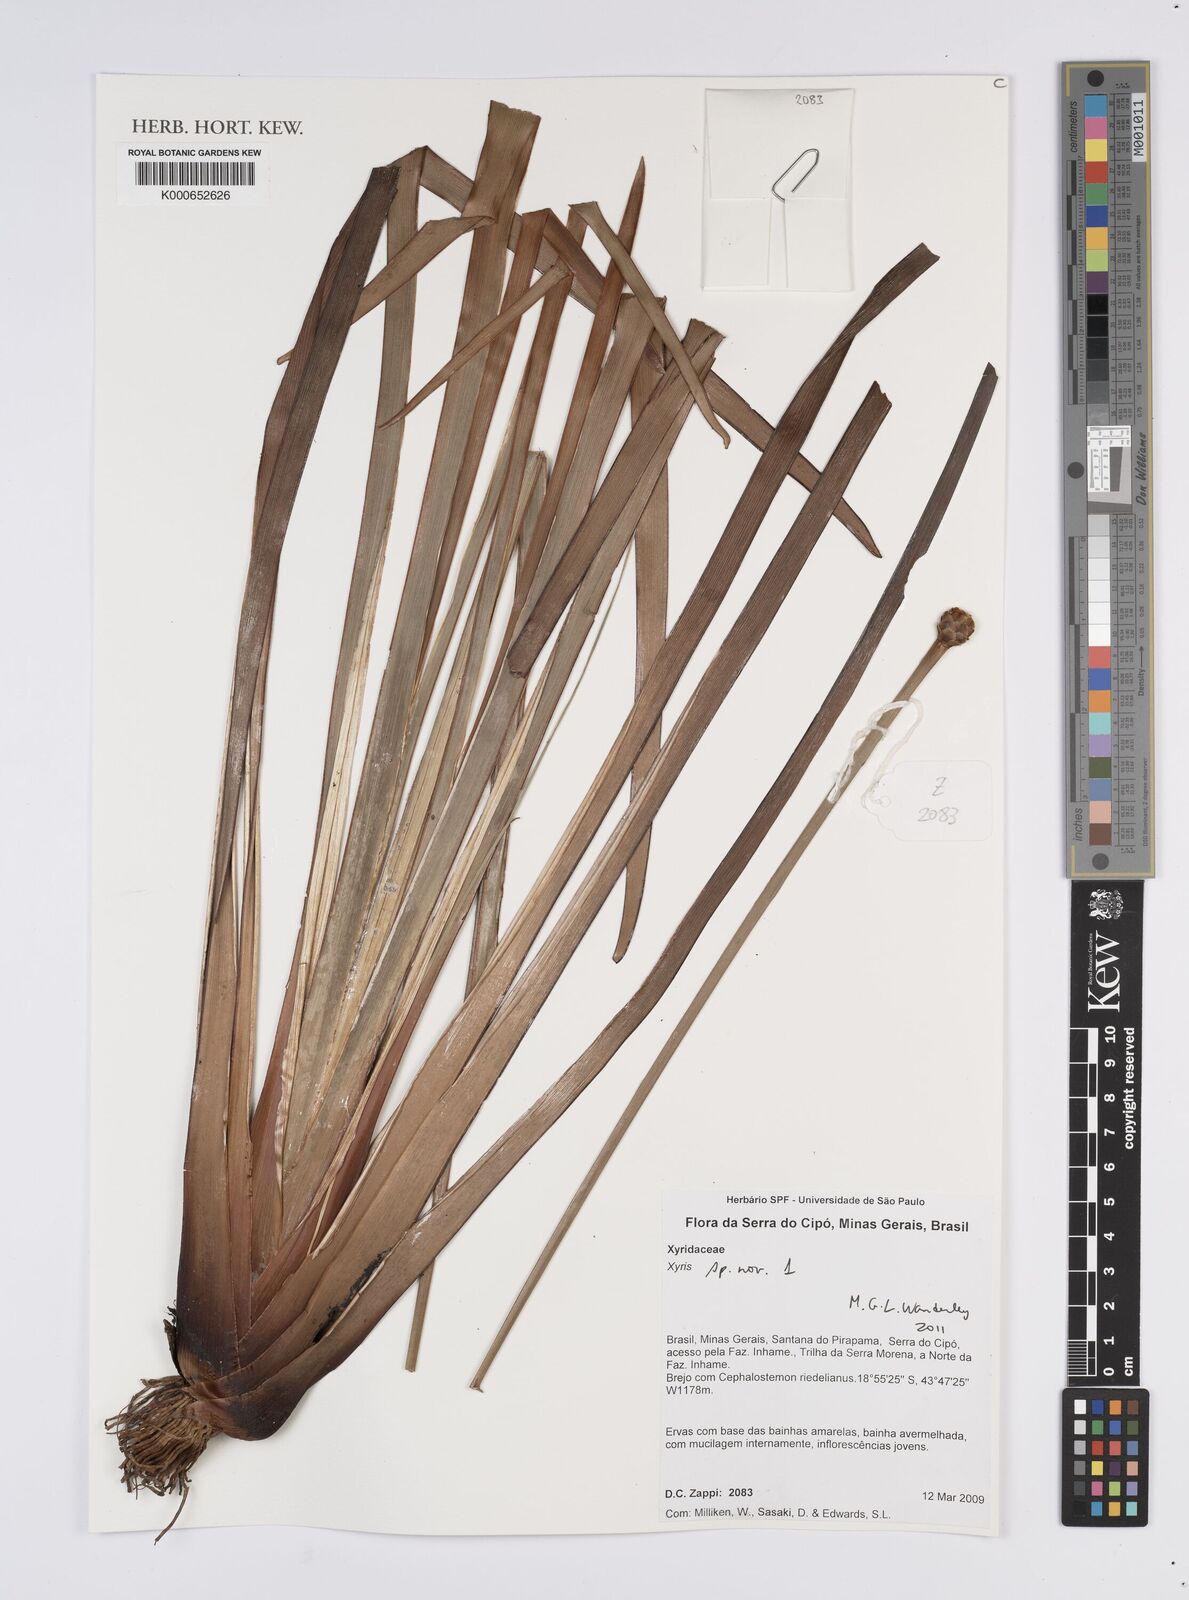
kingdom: Plantae
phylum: Tracheophyta
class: Liliopsida
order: Poales
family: Xyridaceae
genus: Xyris
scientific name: Xyris
